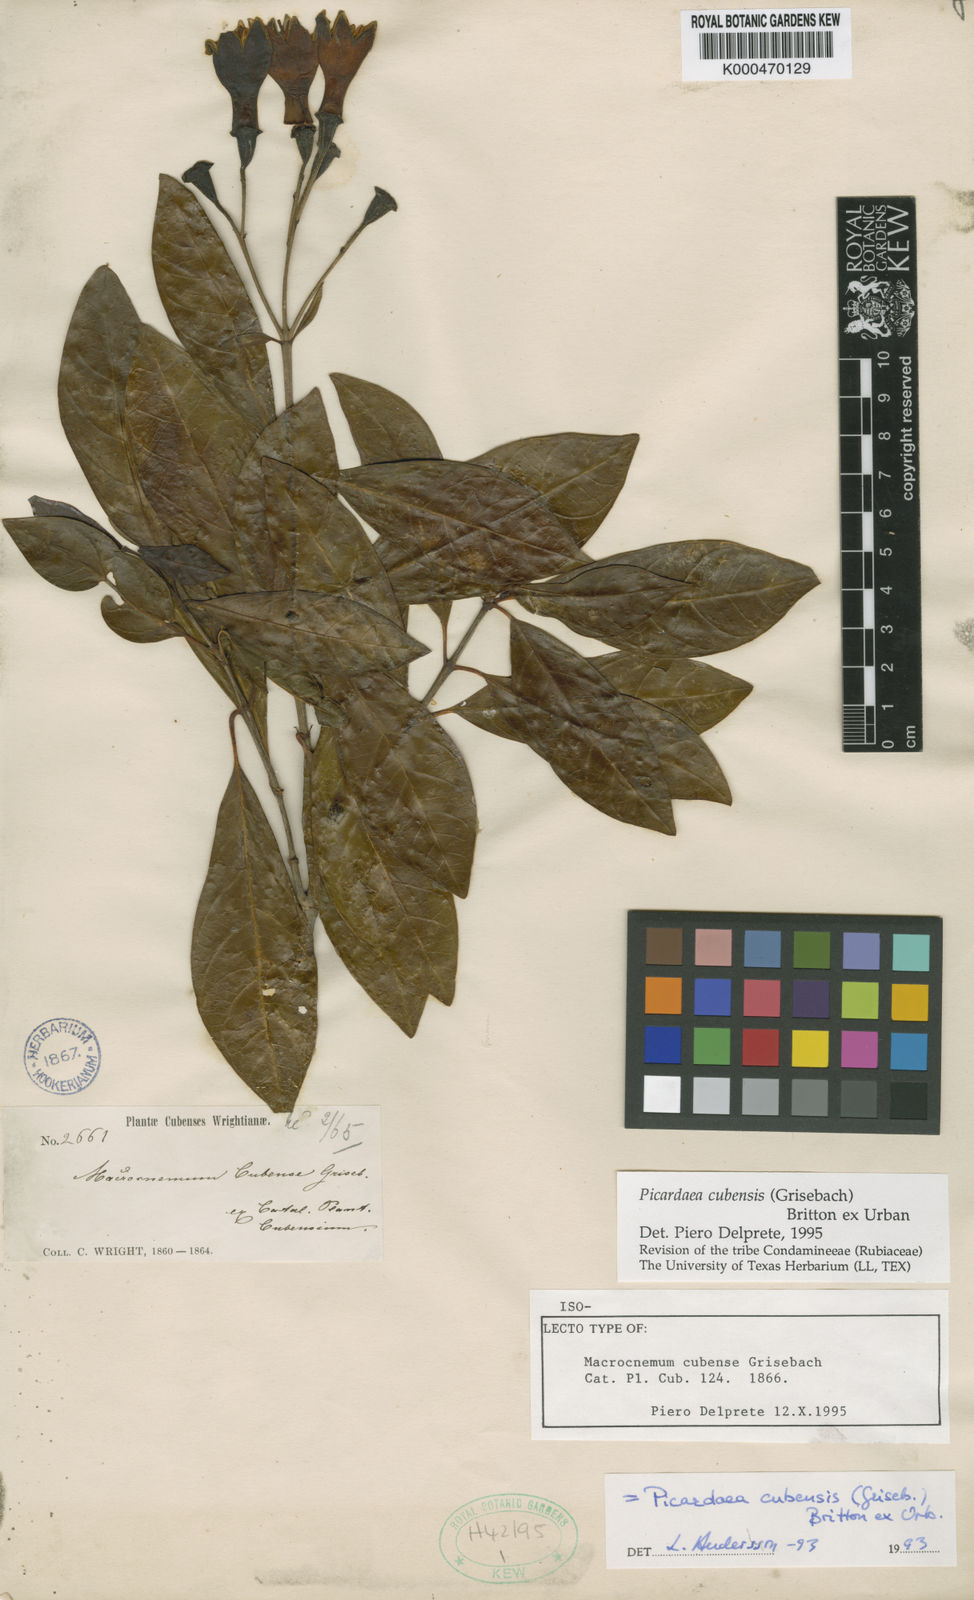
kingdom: Plantae
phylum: Tracheophyta
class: Magnoliopsida
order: Gentianales
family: Rubiaceae
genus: Picardaea
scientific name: Picardaea cubensis
